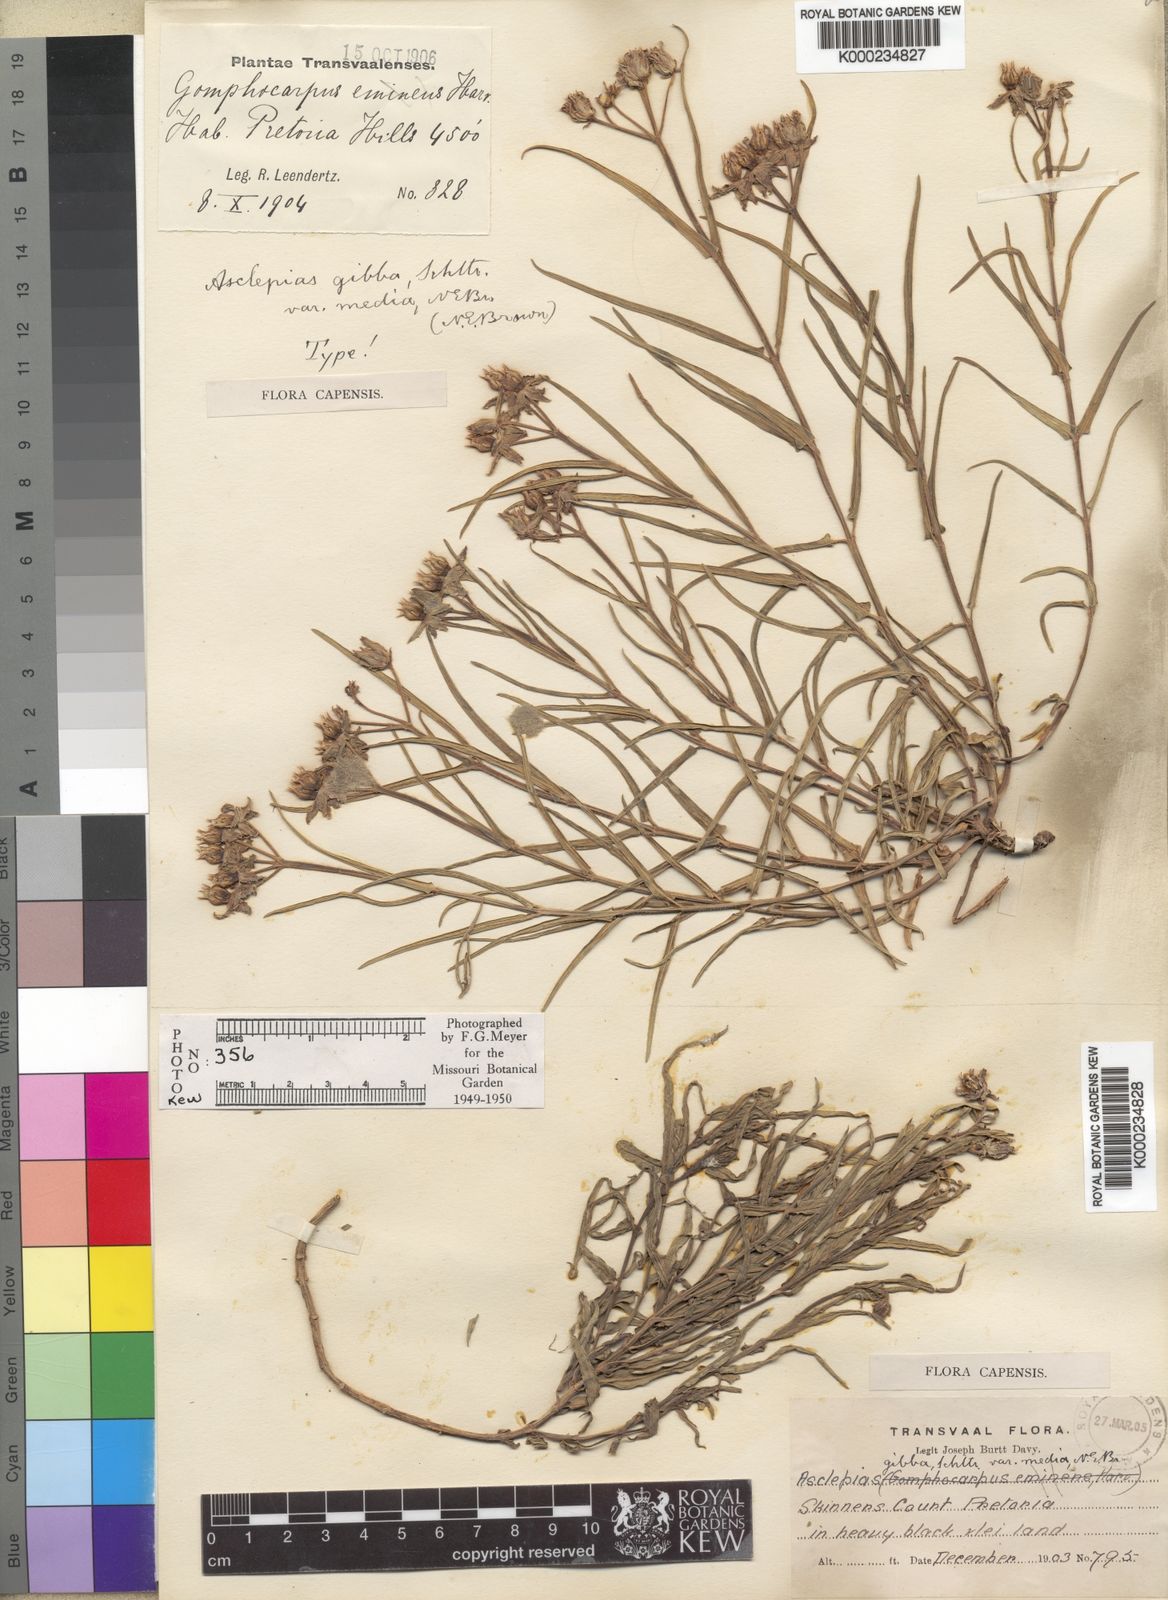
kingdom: Plantae
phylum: Tracheophyta
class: Magnoliopsida
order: Gentianales
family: Apocynaceae
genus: Asclepias
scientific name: Asclepias gibba
